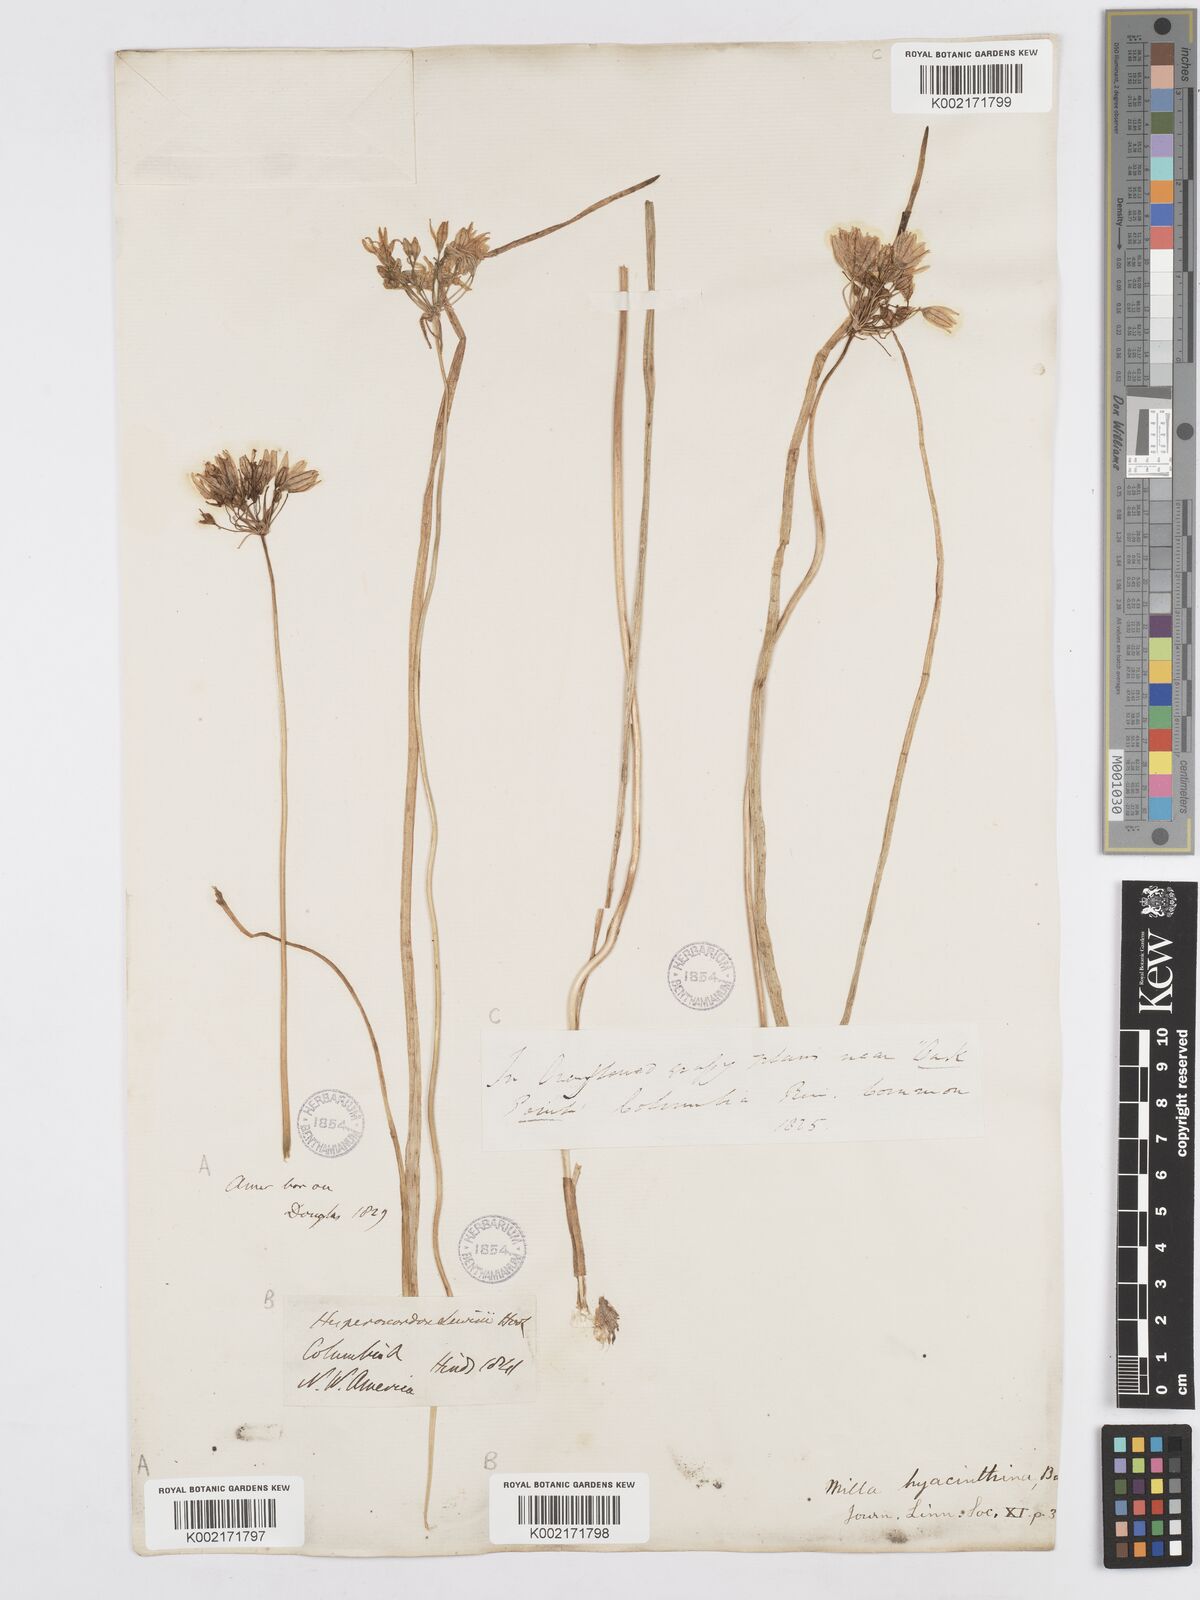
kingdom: Plantae
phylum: Tracheophyta
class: Liliopsida
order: Asparagales
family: Asparagaceae
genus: Triteleia
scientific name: Triteleia hyacinthina
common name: White brodiaea
